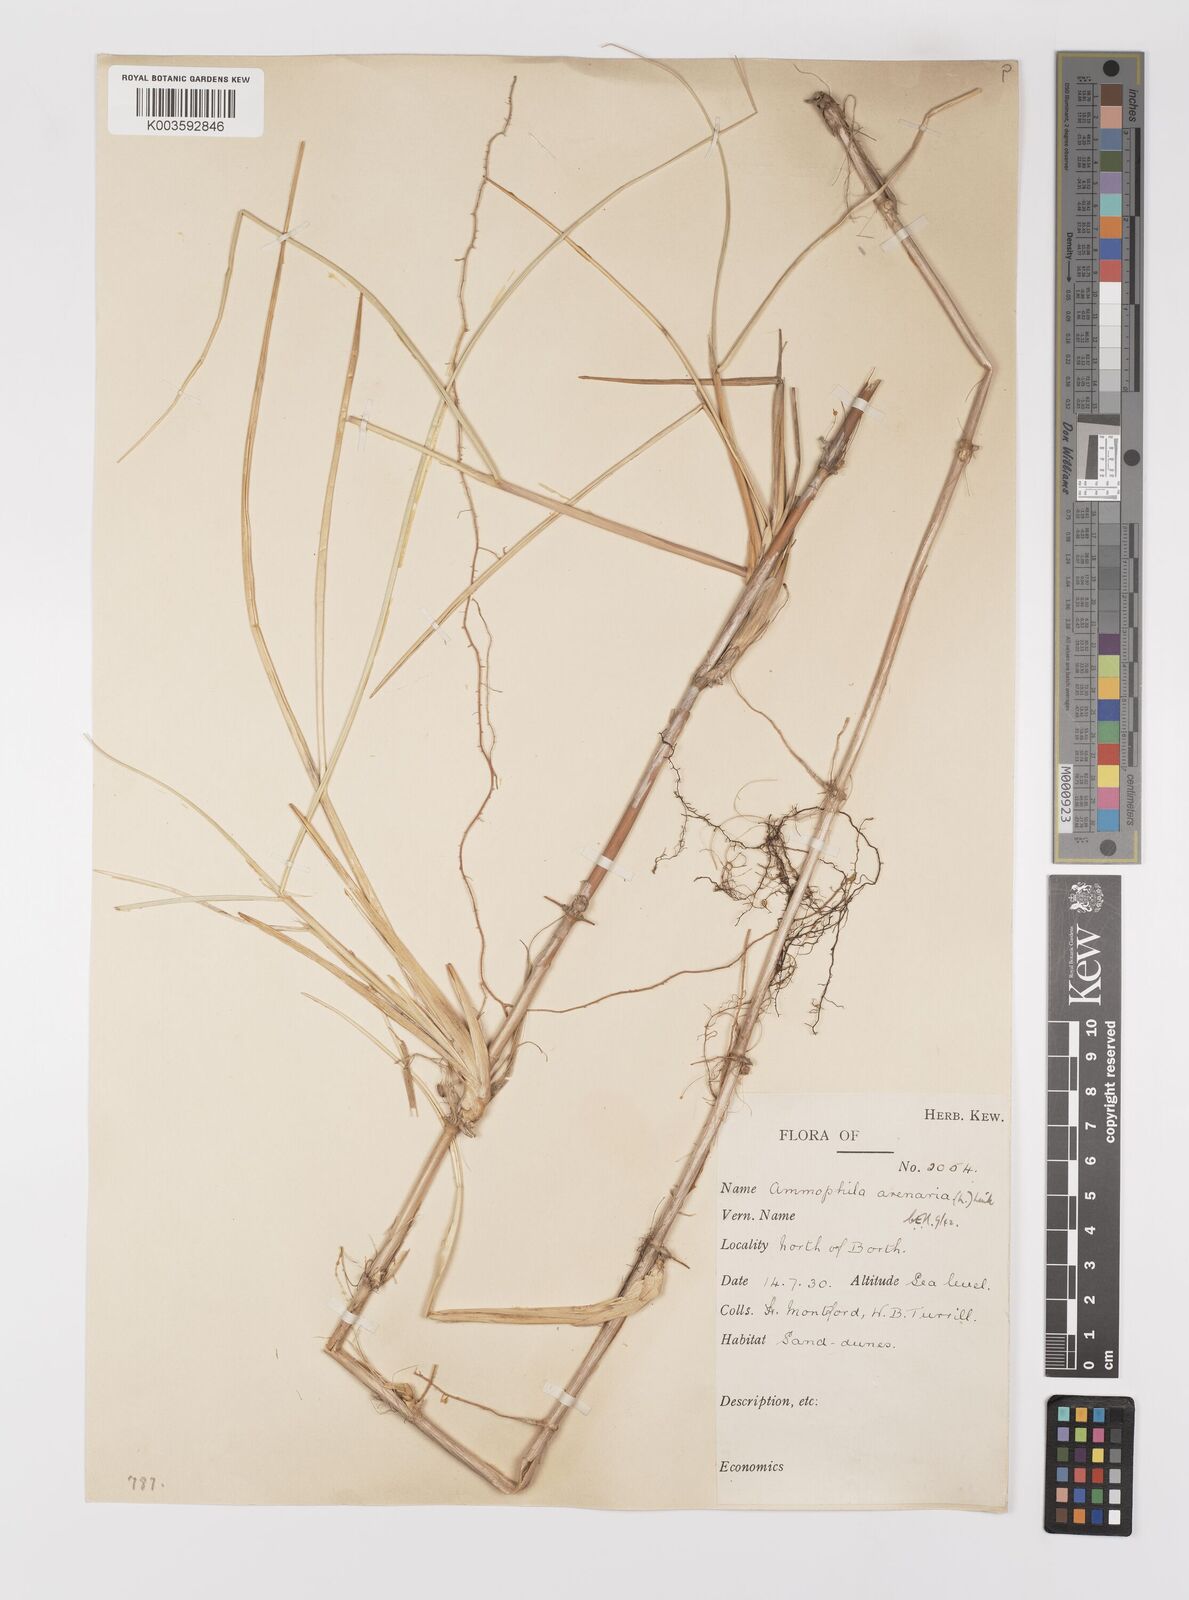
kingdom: Plantae
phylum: Tracheophyta
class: Liliopsida
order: Poales
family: Poaceae
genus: Calamagrostis
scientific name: Calamagrostis arenaria
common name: European beachgrass
